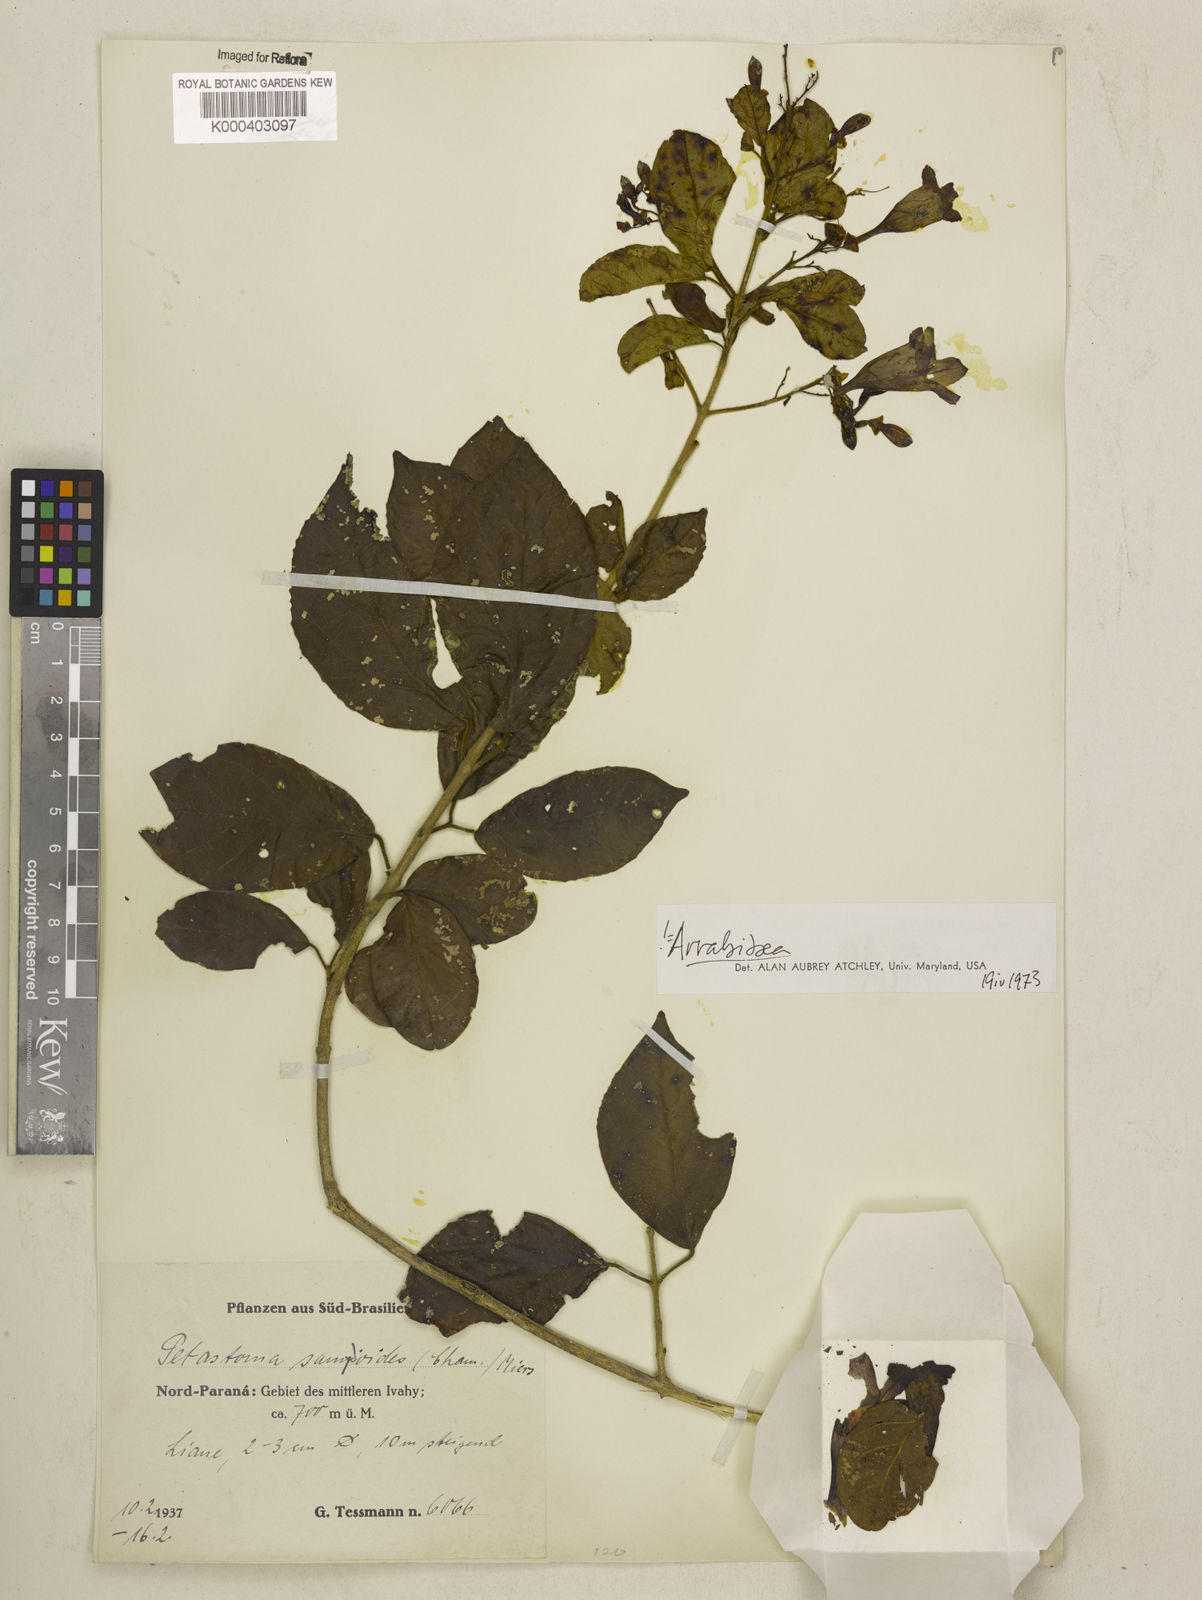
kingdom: Plantae
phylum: Tracheophyta
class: Magnoliopsida
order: Lamiales
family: Bignoniaceae
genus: Fridericia
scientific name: Fridericia samydoides
